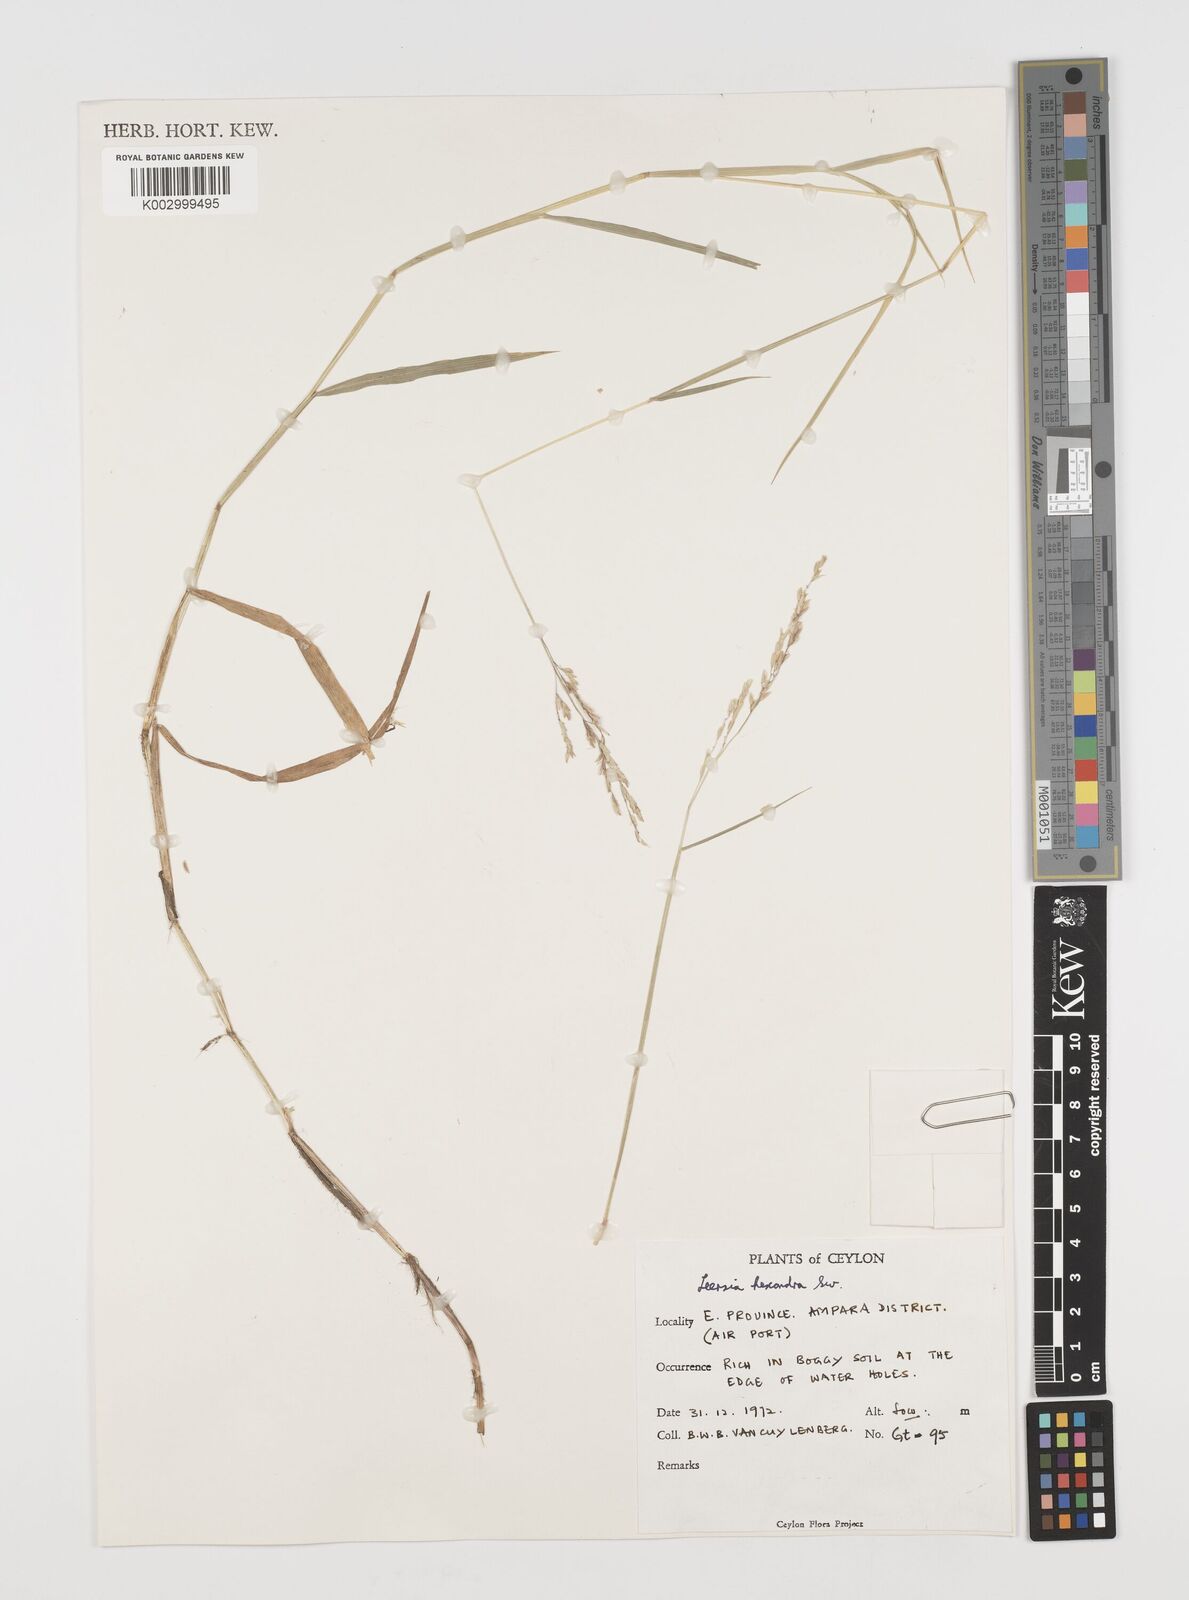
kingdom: Plantae
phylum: Tracheophyta
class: Liliopsida
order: Poales
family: Poaceae
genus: Leersia
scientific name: Leersia hexandra
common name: Southern cut grass
